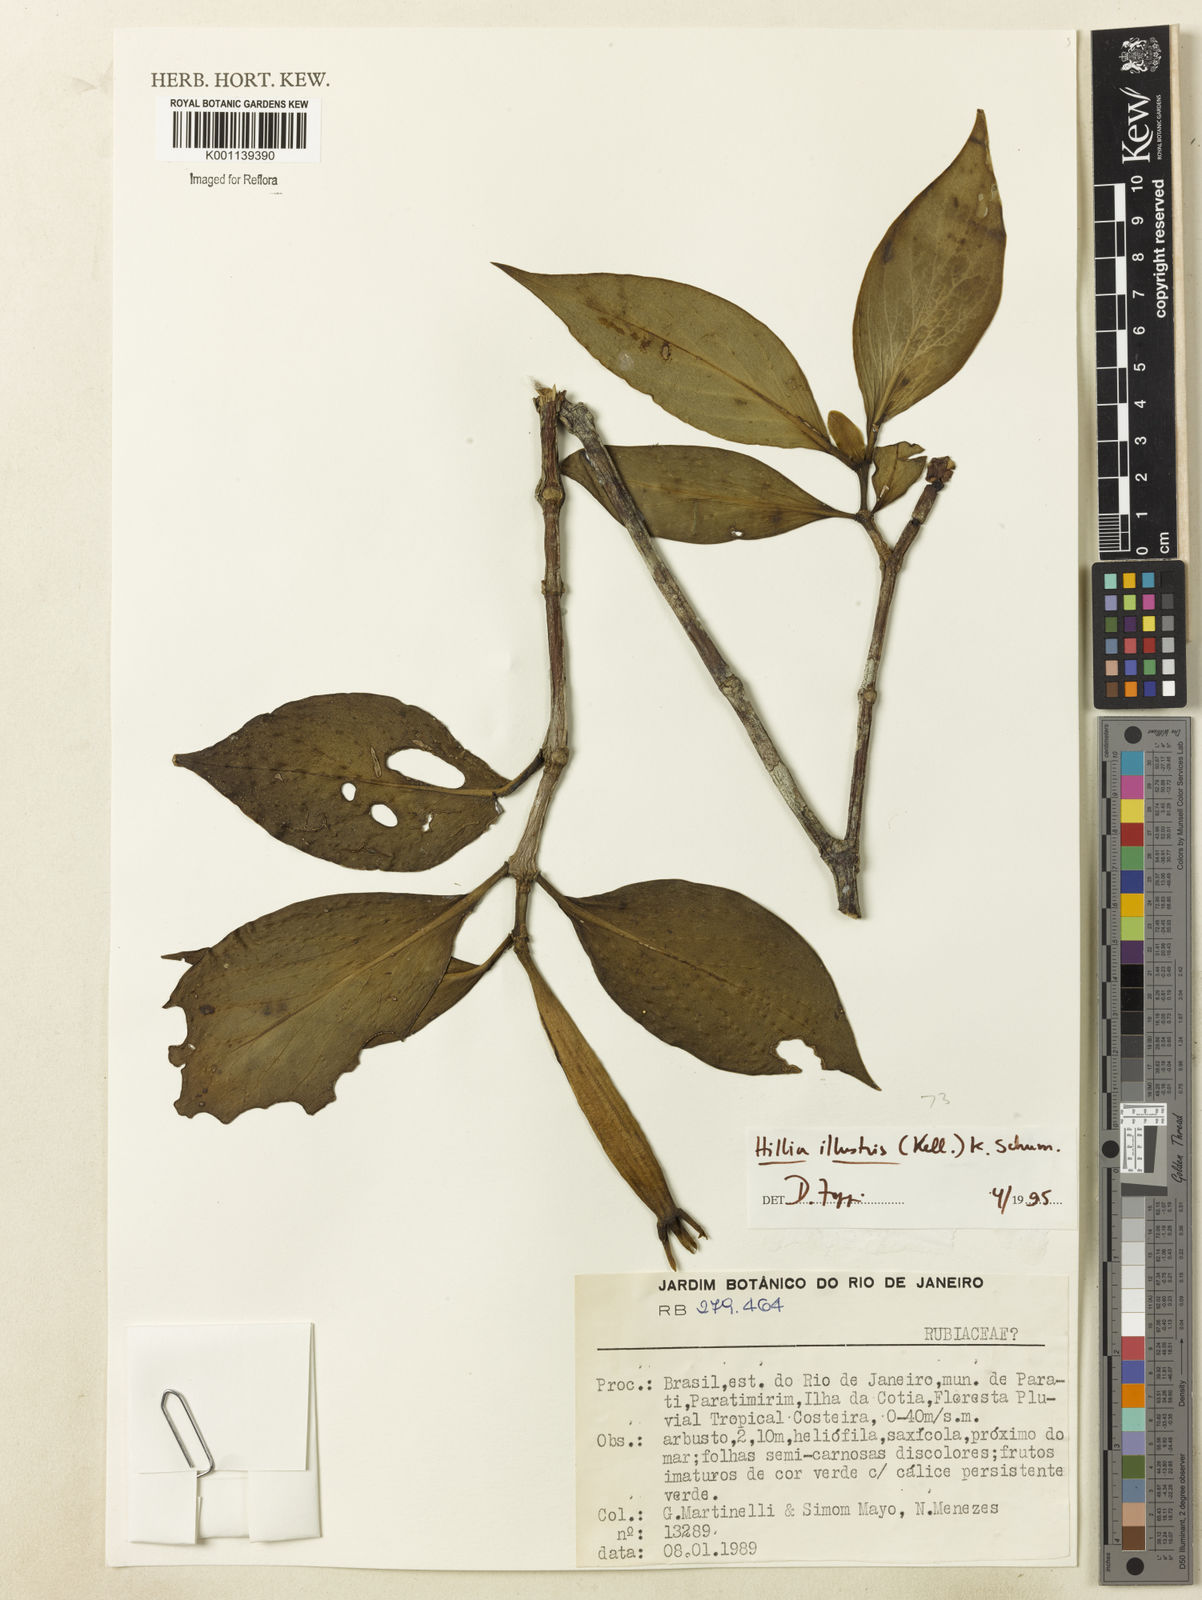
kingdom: Plantae
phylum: Tracheophyta
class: Magnoliopsida
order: Gentianales
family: Rubiaceae
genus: Hillia
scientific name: Hillia illustris
